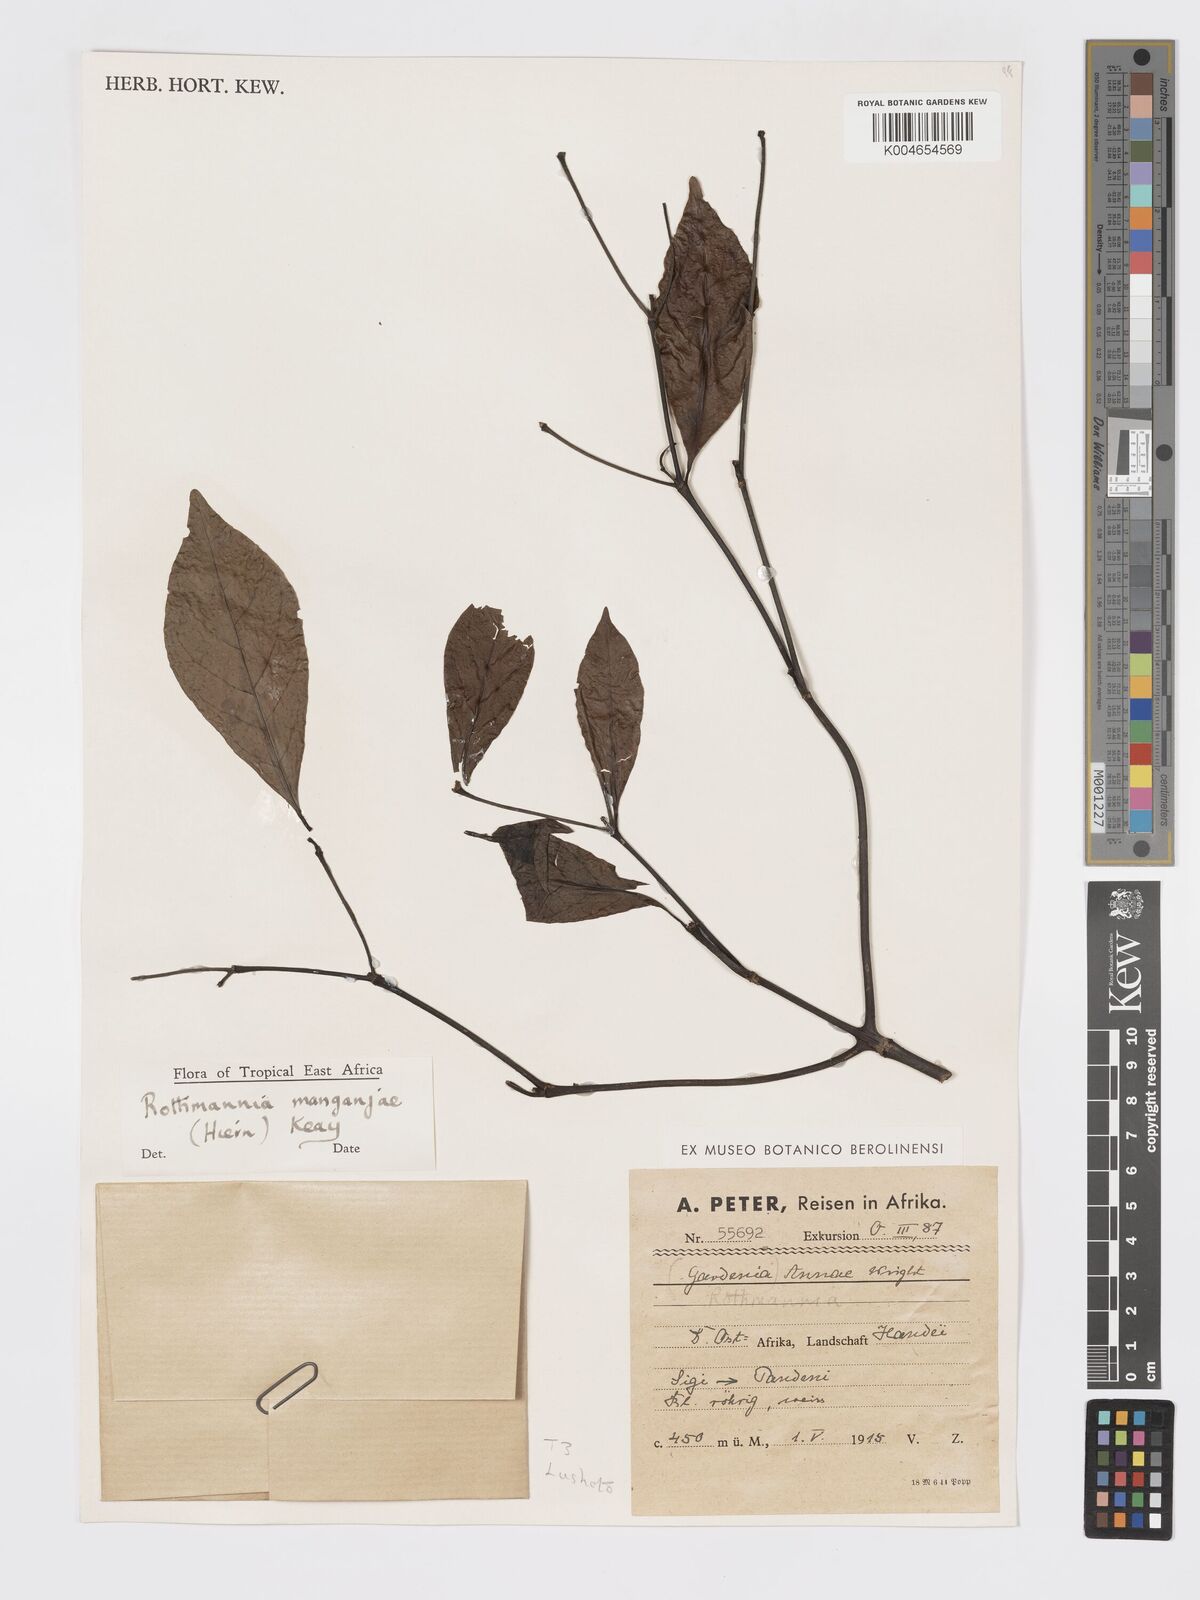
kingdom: Plantae
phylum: Tracheophyta
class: Magnoliopsida
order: Gentianales
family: Rubiaceae
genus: Rothmannia
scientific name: Rothmannia
